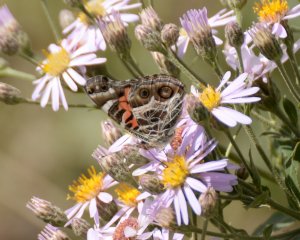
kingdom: Animalia
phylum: Arthropoda
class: Insecta
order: Lepidoptera
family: Nymphalidae
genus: Vanessa
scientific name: Vanessa virginiensis
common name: American Lady
